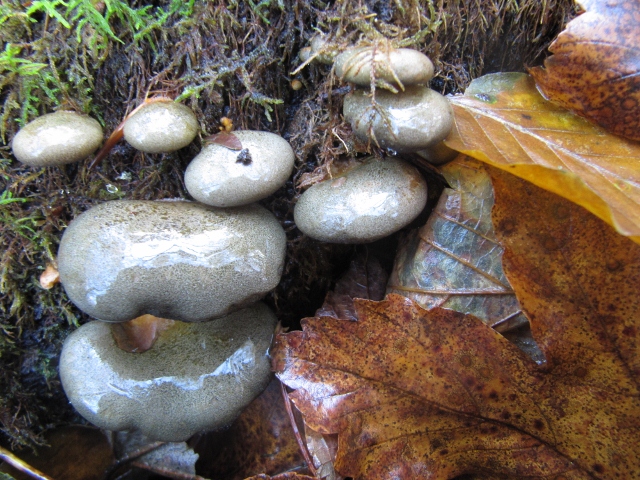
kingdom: Fungi
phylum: Basidiomycota
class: Agaricomycetes
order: Agaricales
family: Sarcomyxaceae
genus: Sarcomyxa
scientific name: Sarcomyxa serotina
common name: gummihat
